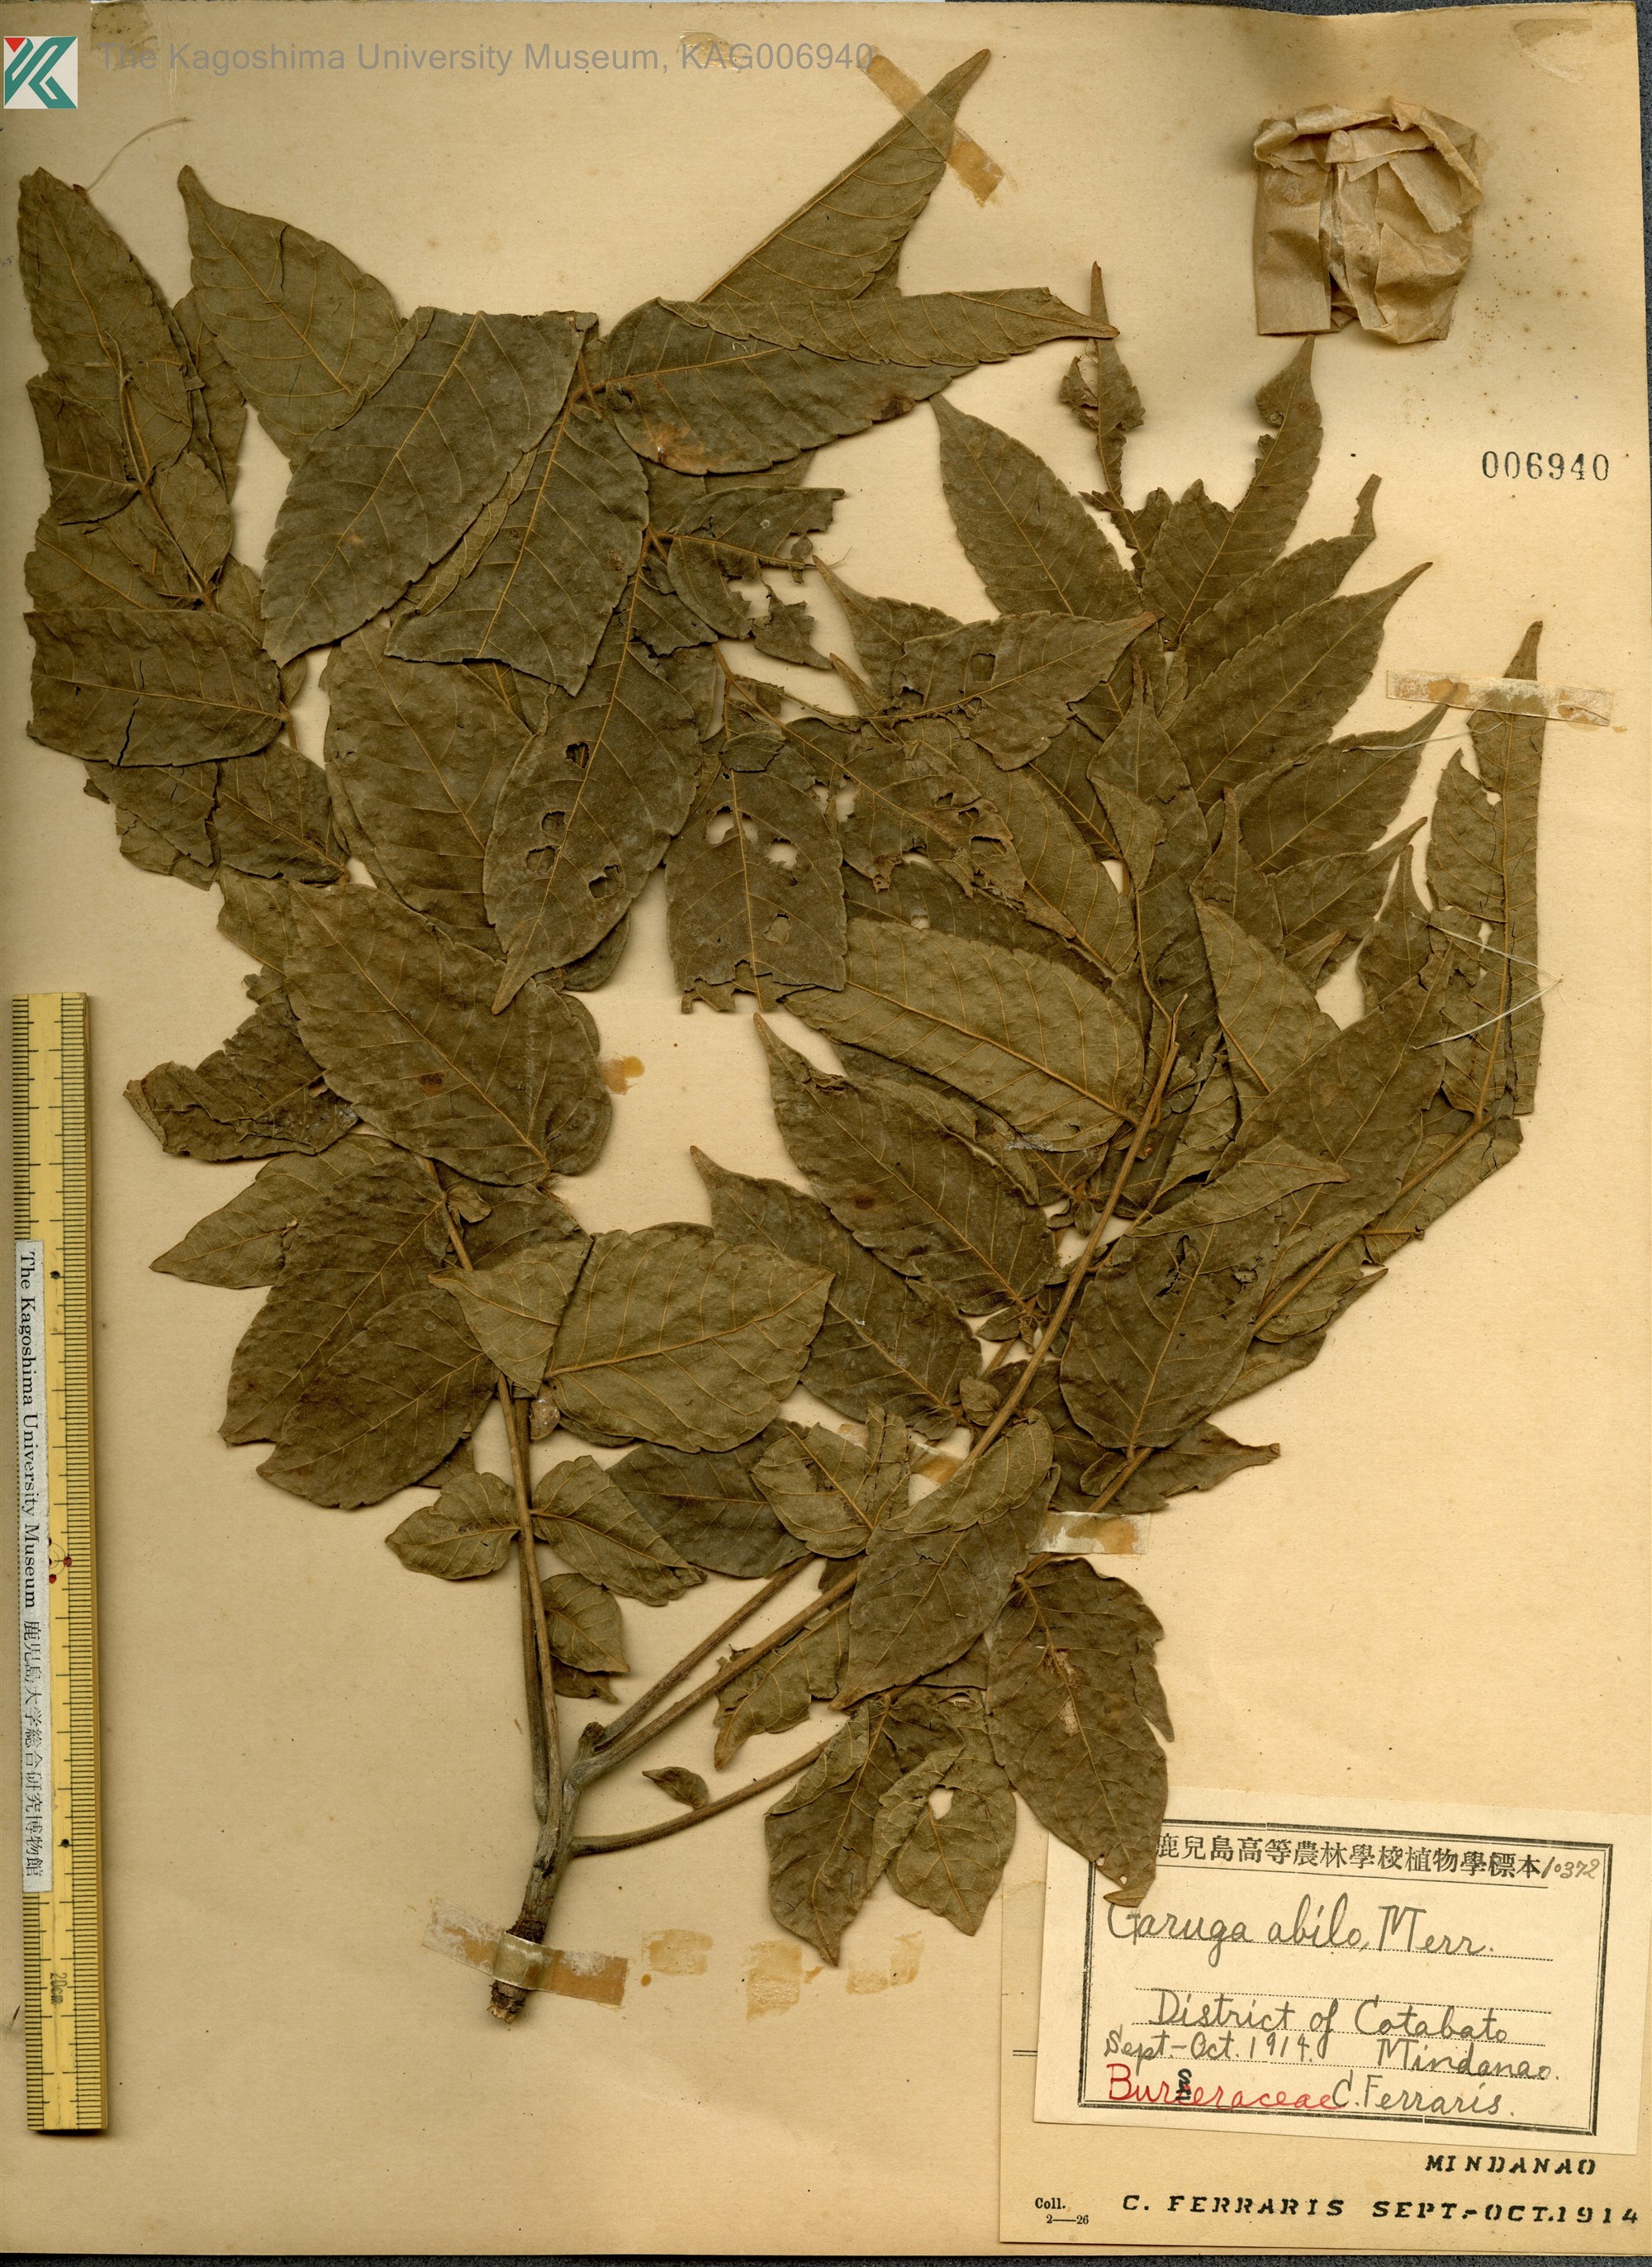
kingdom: Plantae
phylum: Tracheophyta
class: Magnoliopsida
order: Sapindales
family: Burseraceae
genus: Garuga
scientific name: Garuga floribunda
